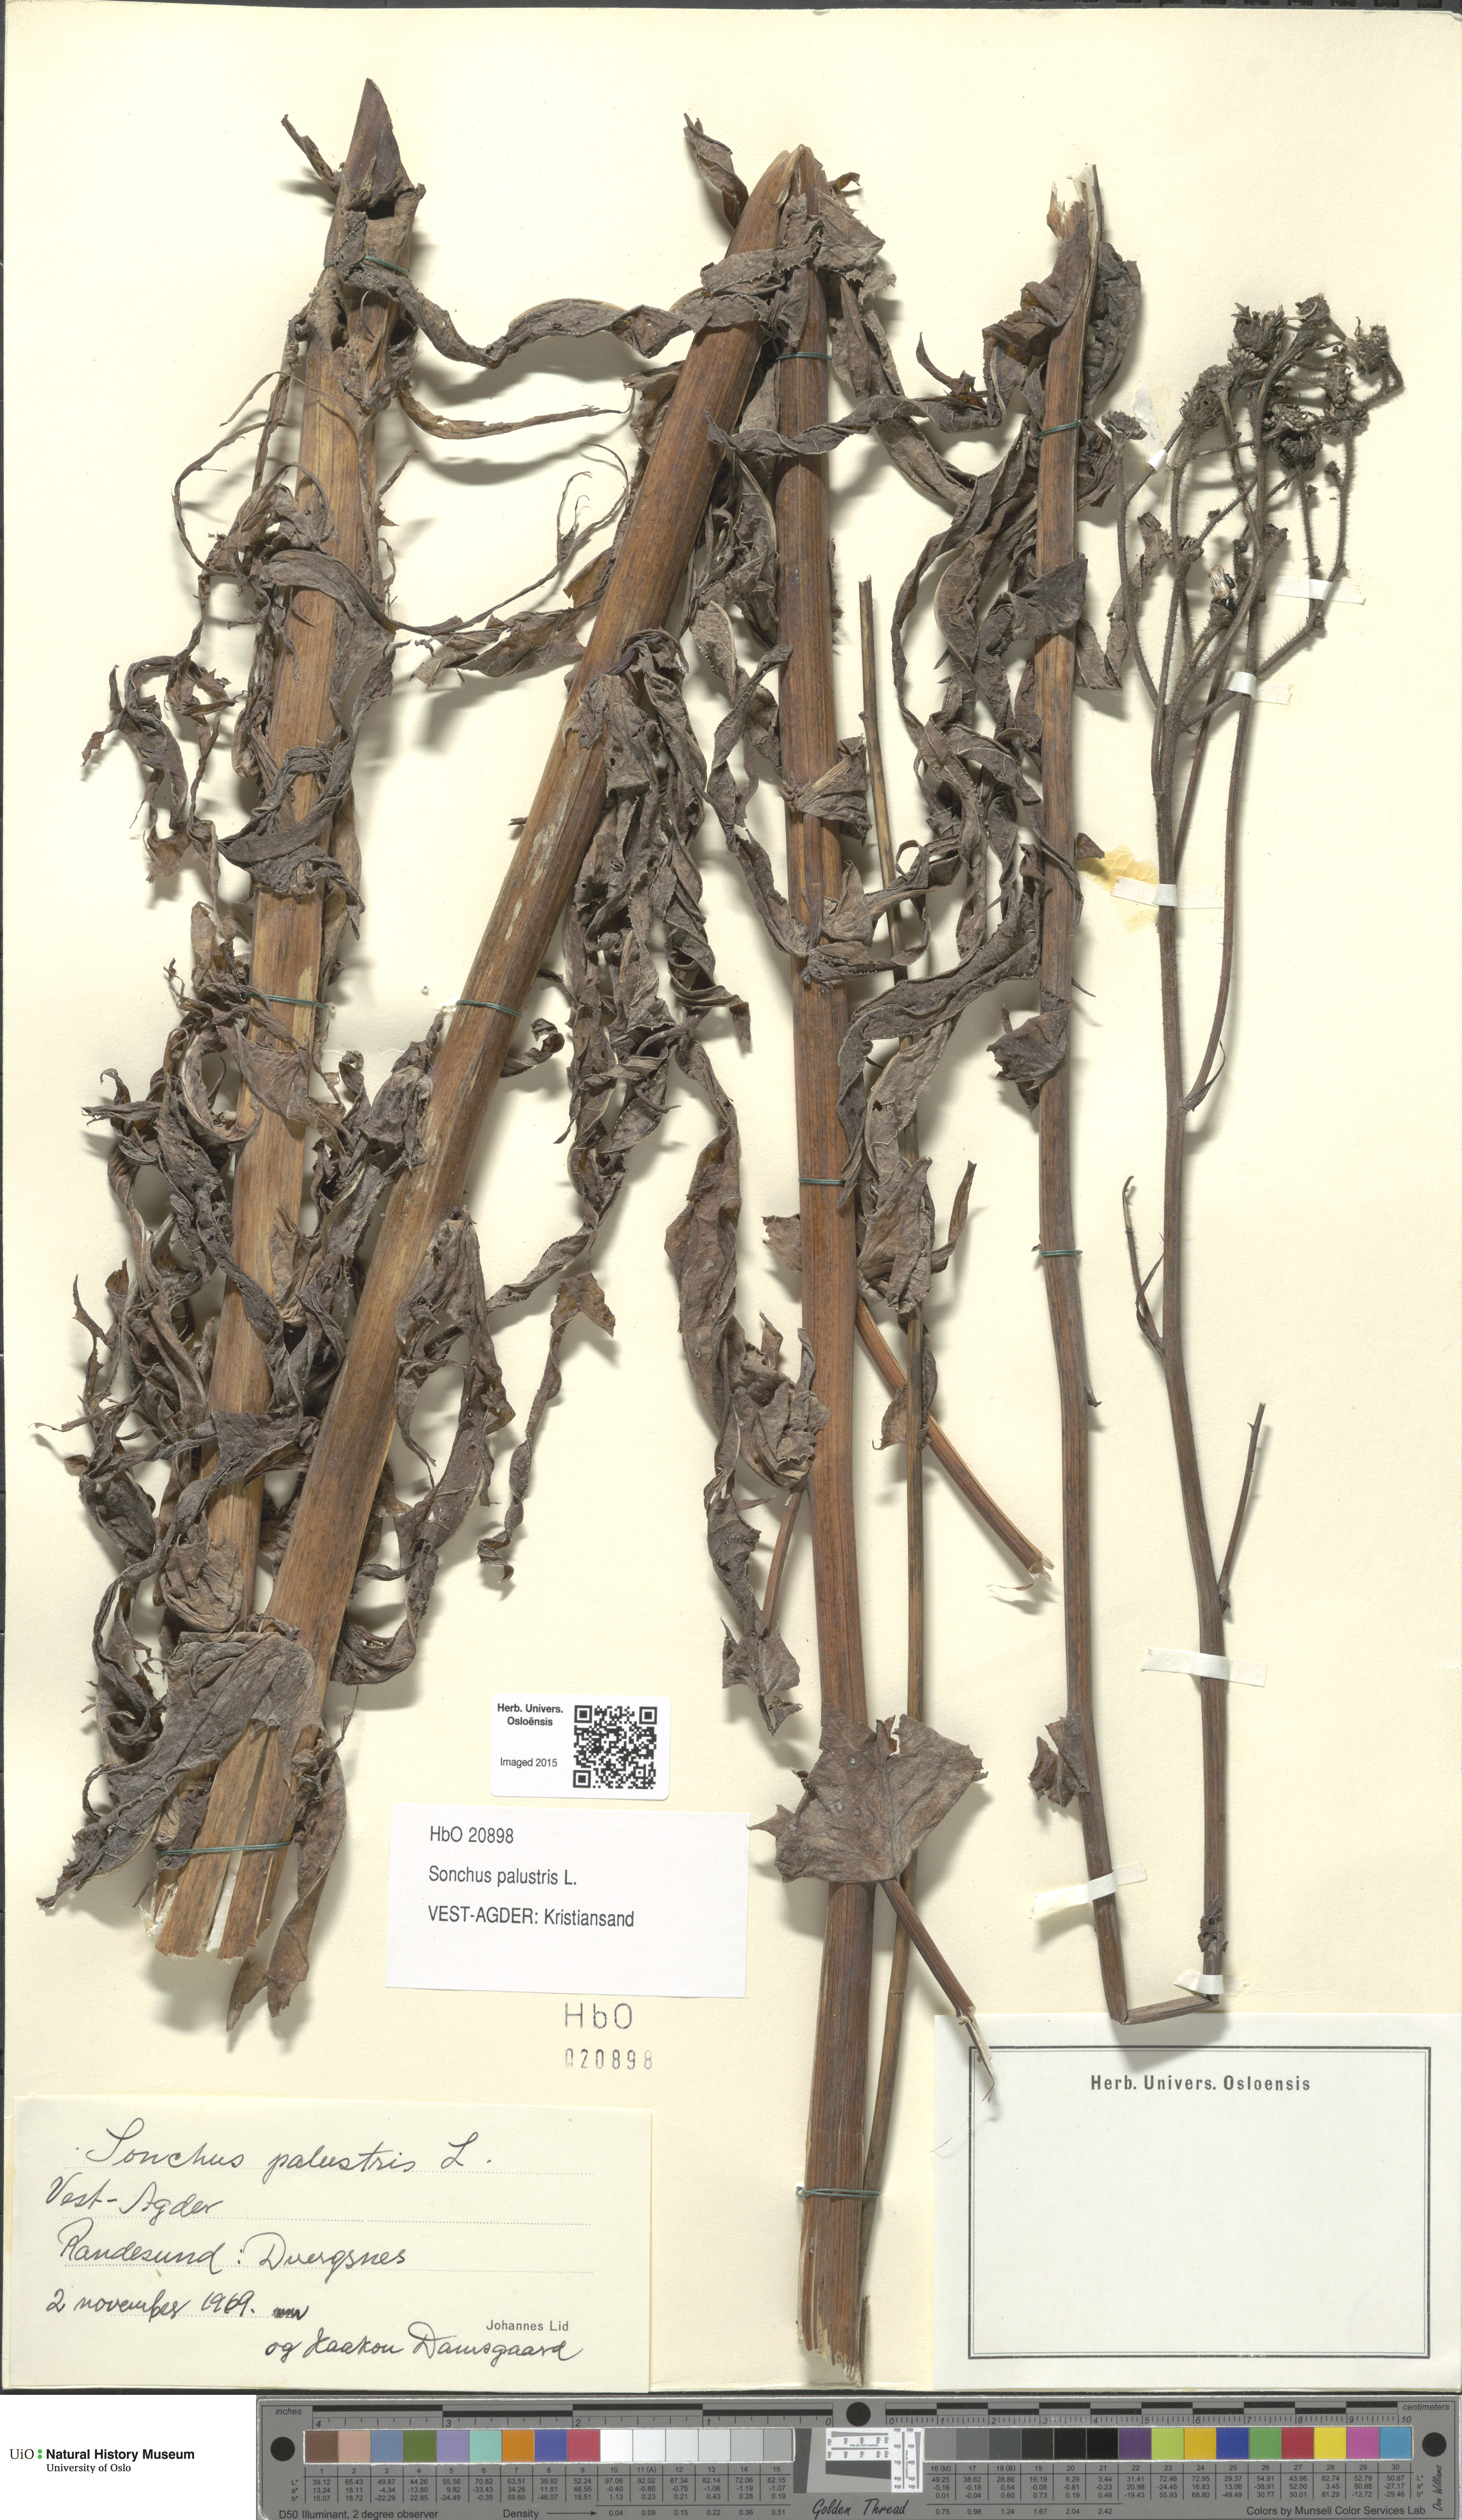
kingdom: Plantae
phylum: Tracheophyta
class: Magnoliopsida
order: Asterales
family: Asteraceae
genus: Sonchus
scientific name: Sonchus palustris
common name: Marsh sow-thistle
